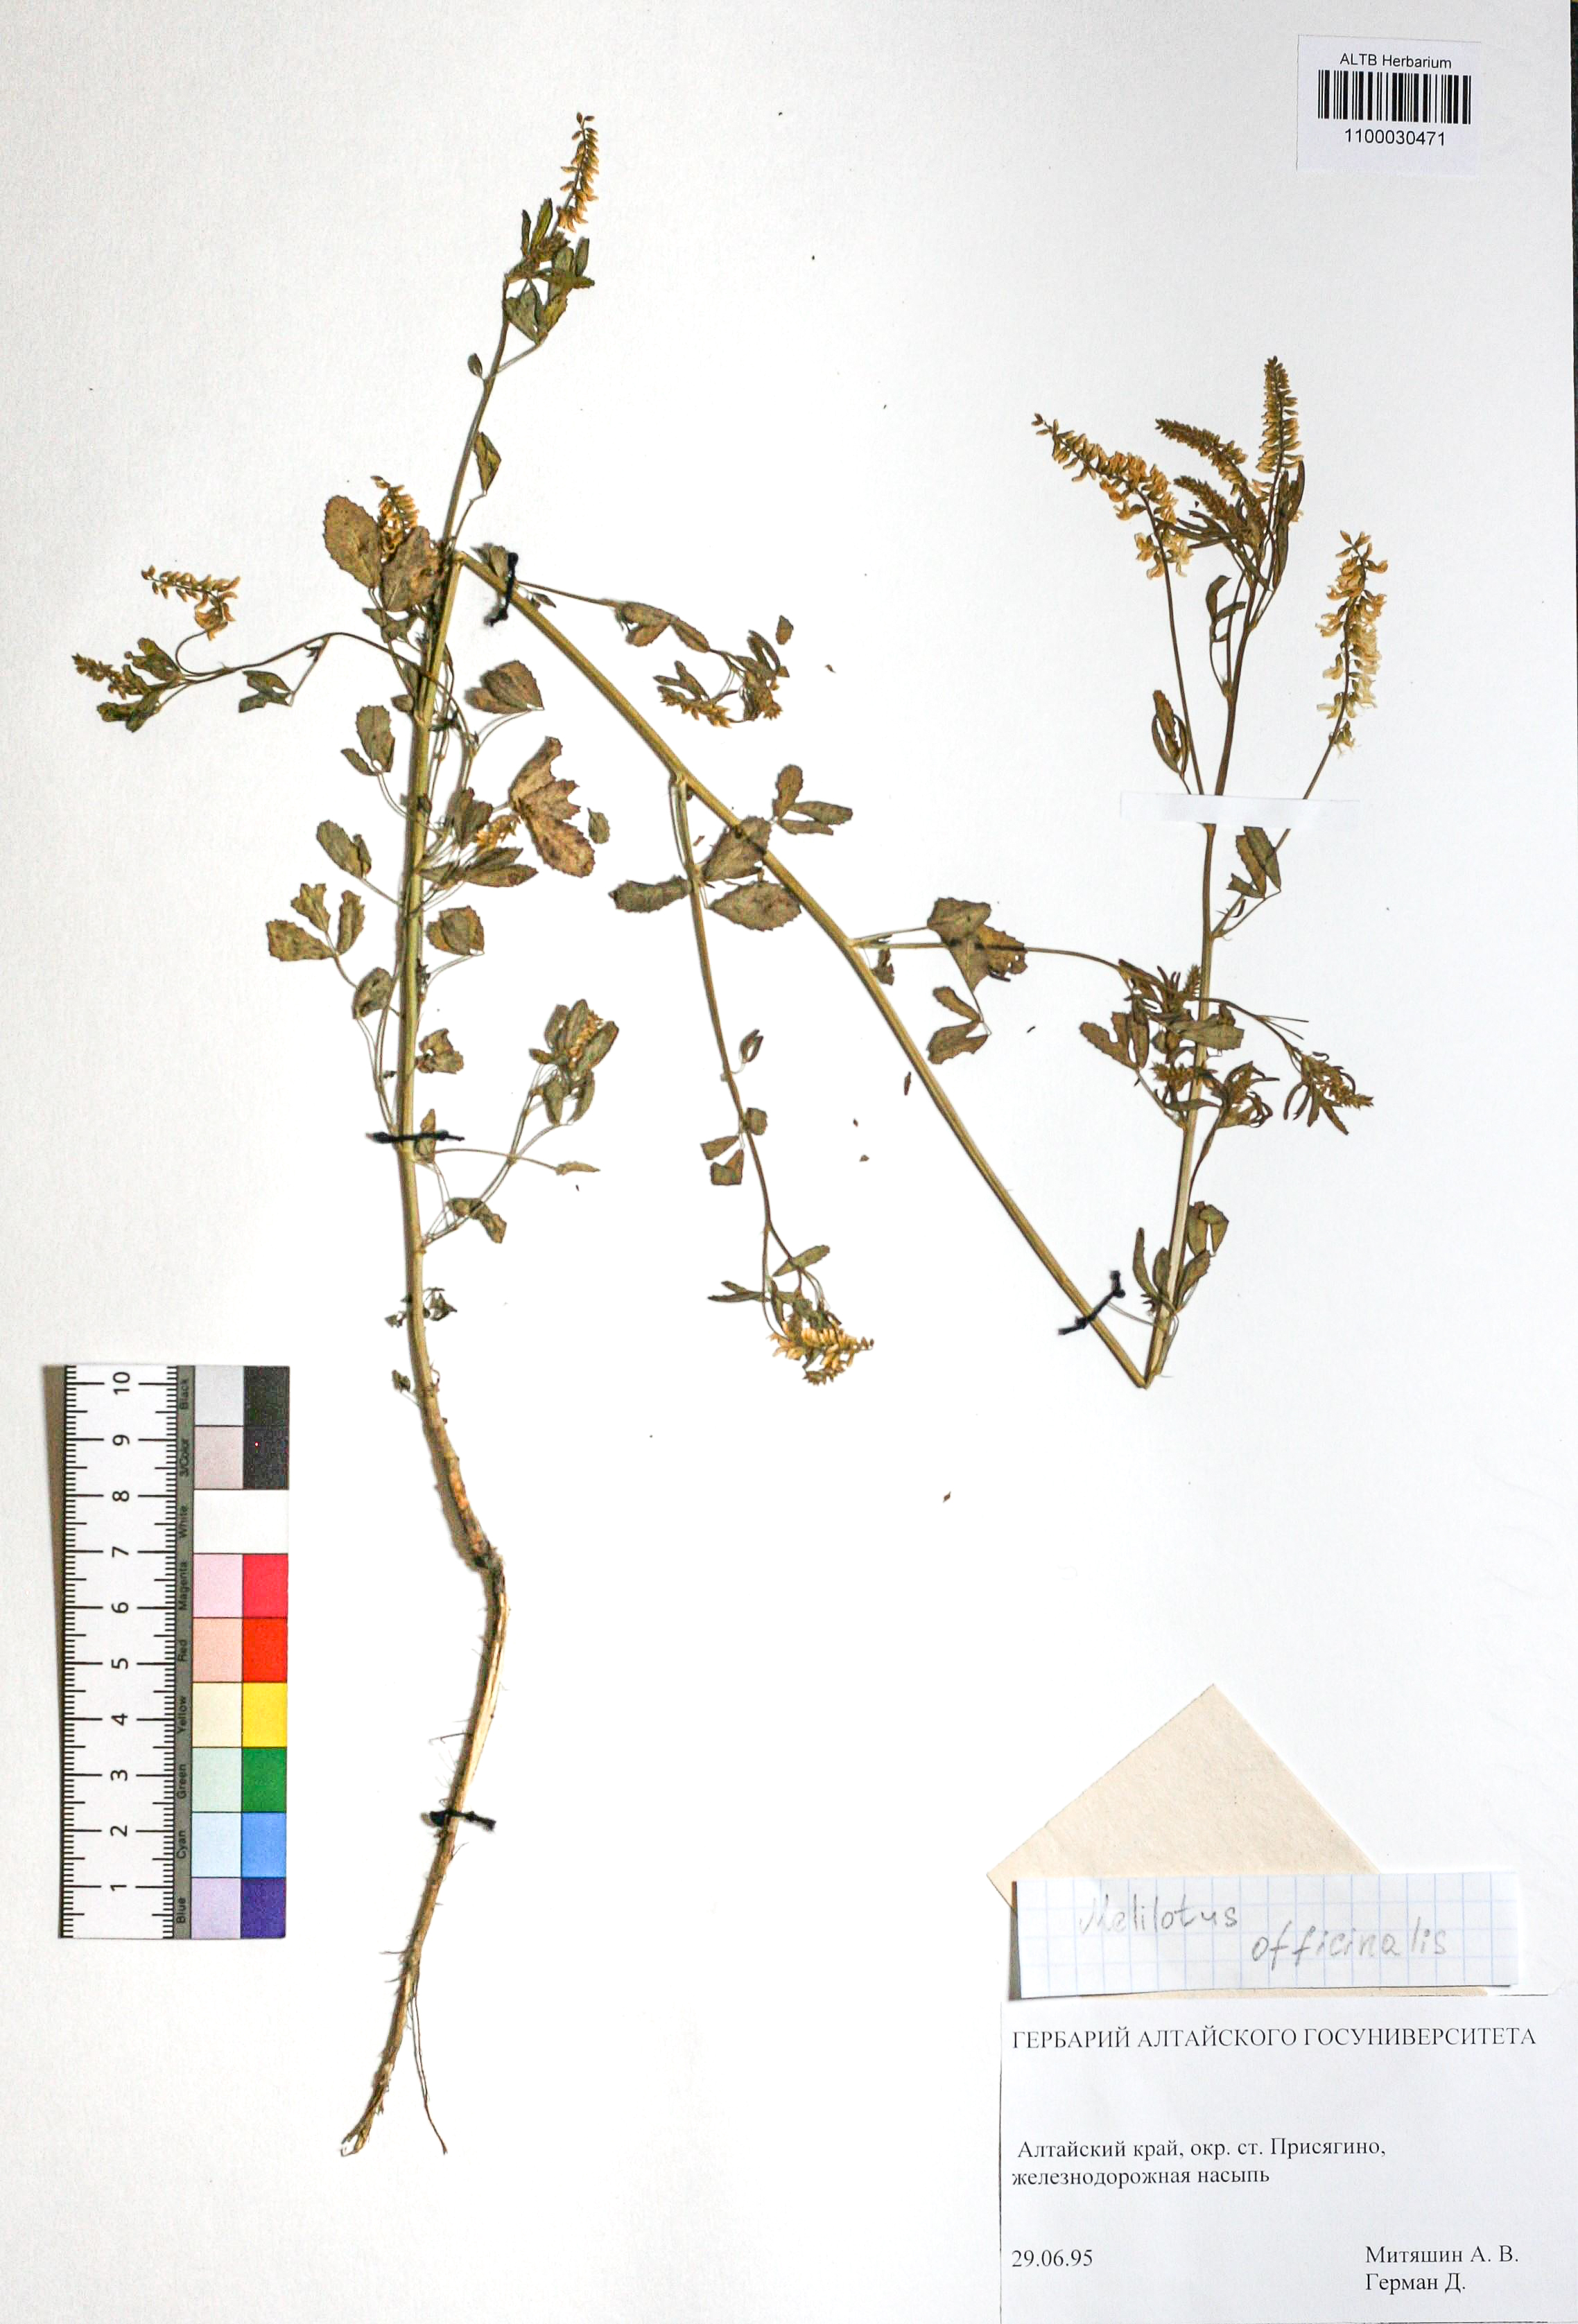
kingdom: Plantae
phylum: Tracheophyta
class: Magnoliopsida
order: Fabales
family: Fabaceae
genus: Melilotus
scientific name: Melilotus officinalis
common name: Sweetclover
